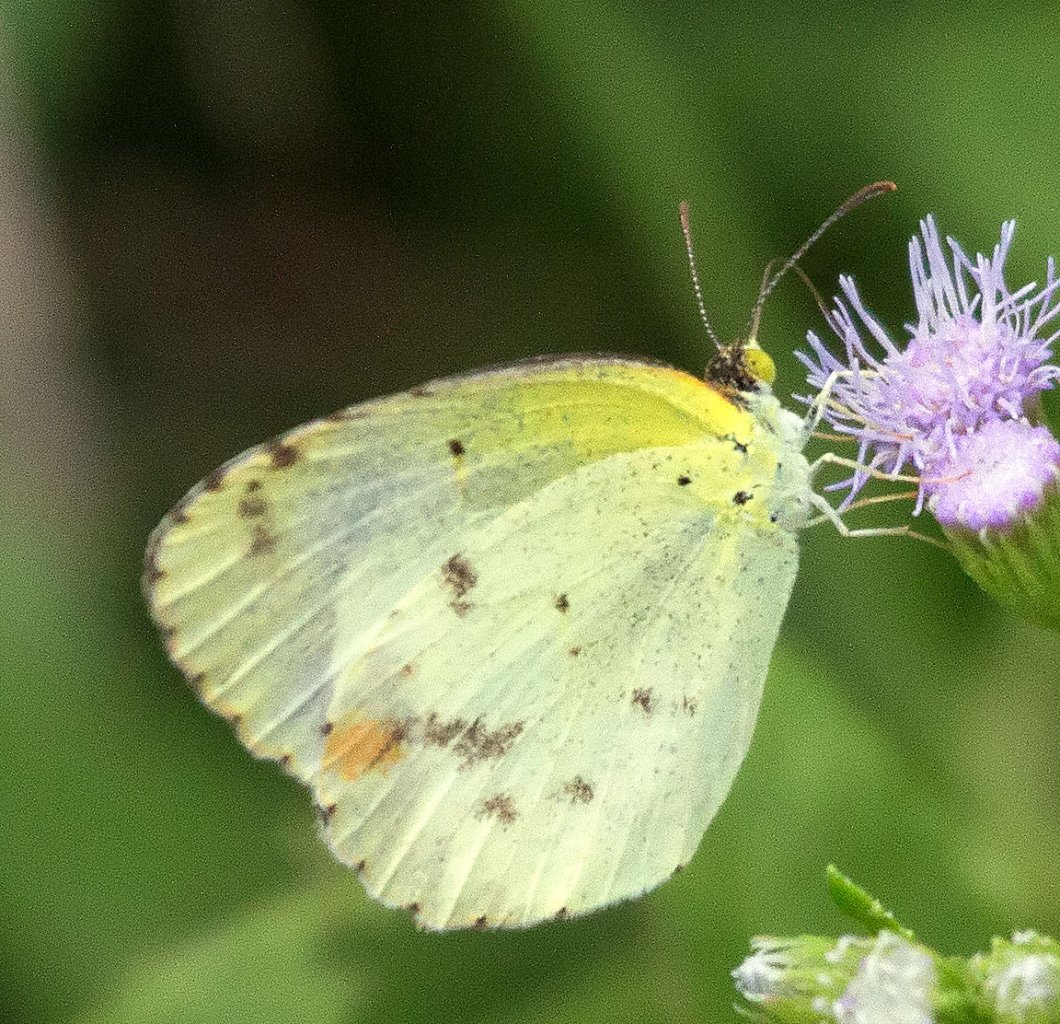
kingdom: Animalia
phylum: Arthropoda
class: Insecta
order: Lepidoptera
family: Pieridae
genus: Pyrisitia
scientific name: Pyrisitia lisa
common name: Little Yellow
